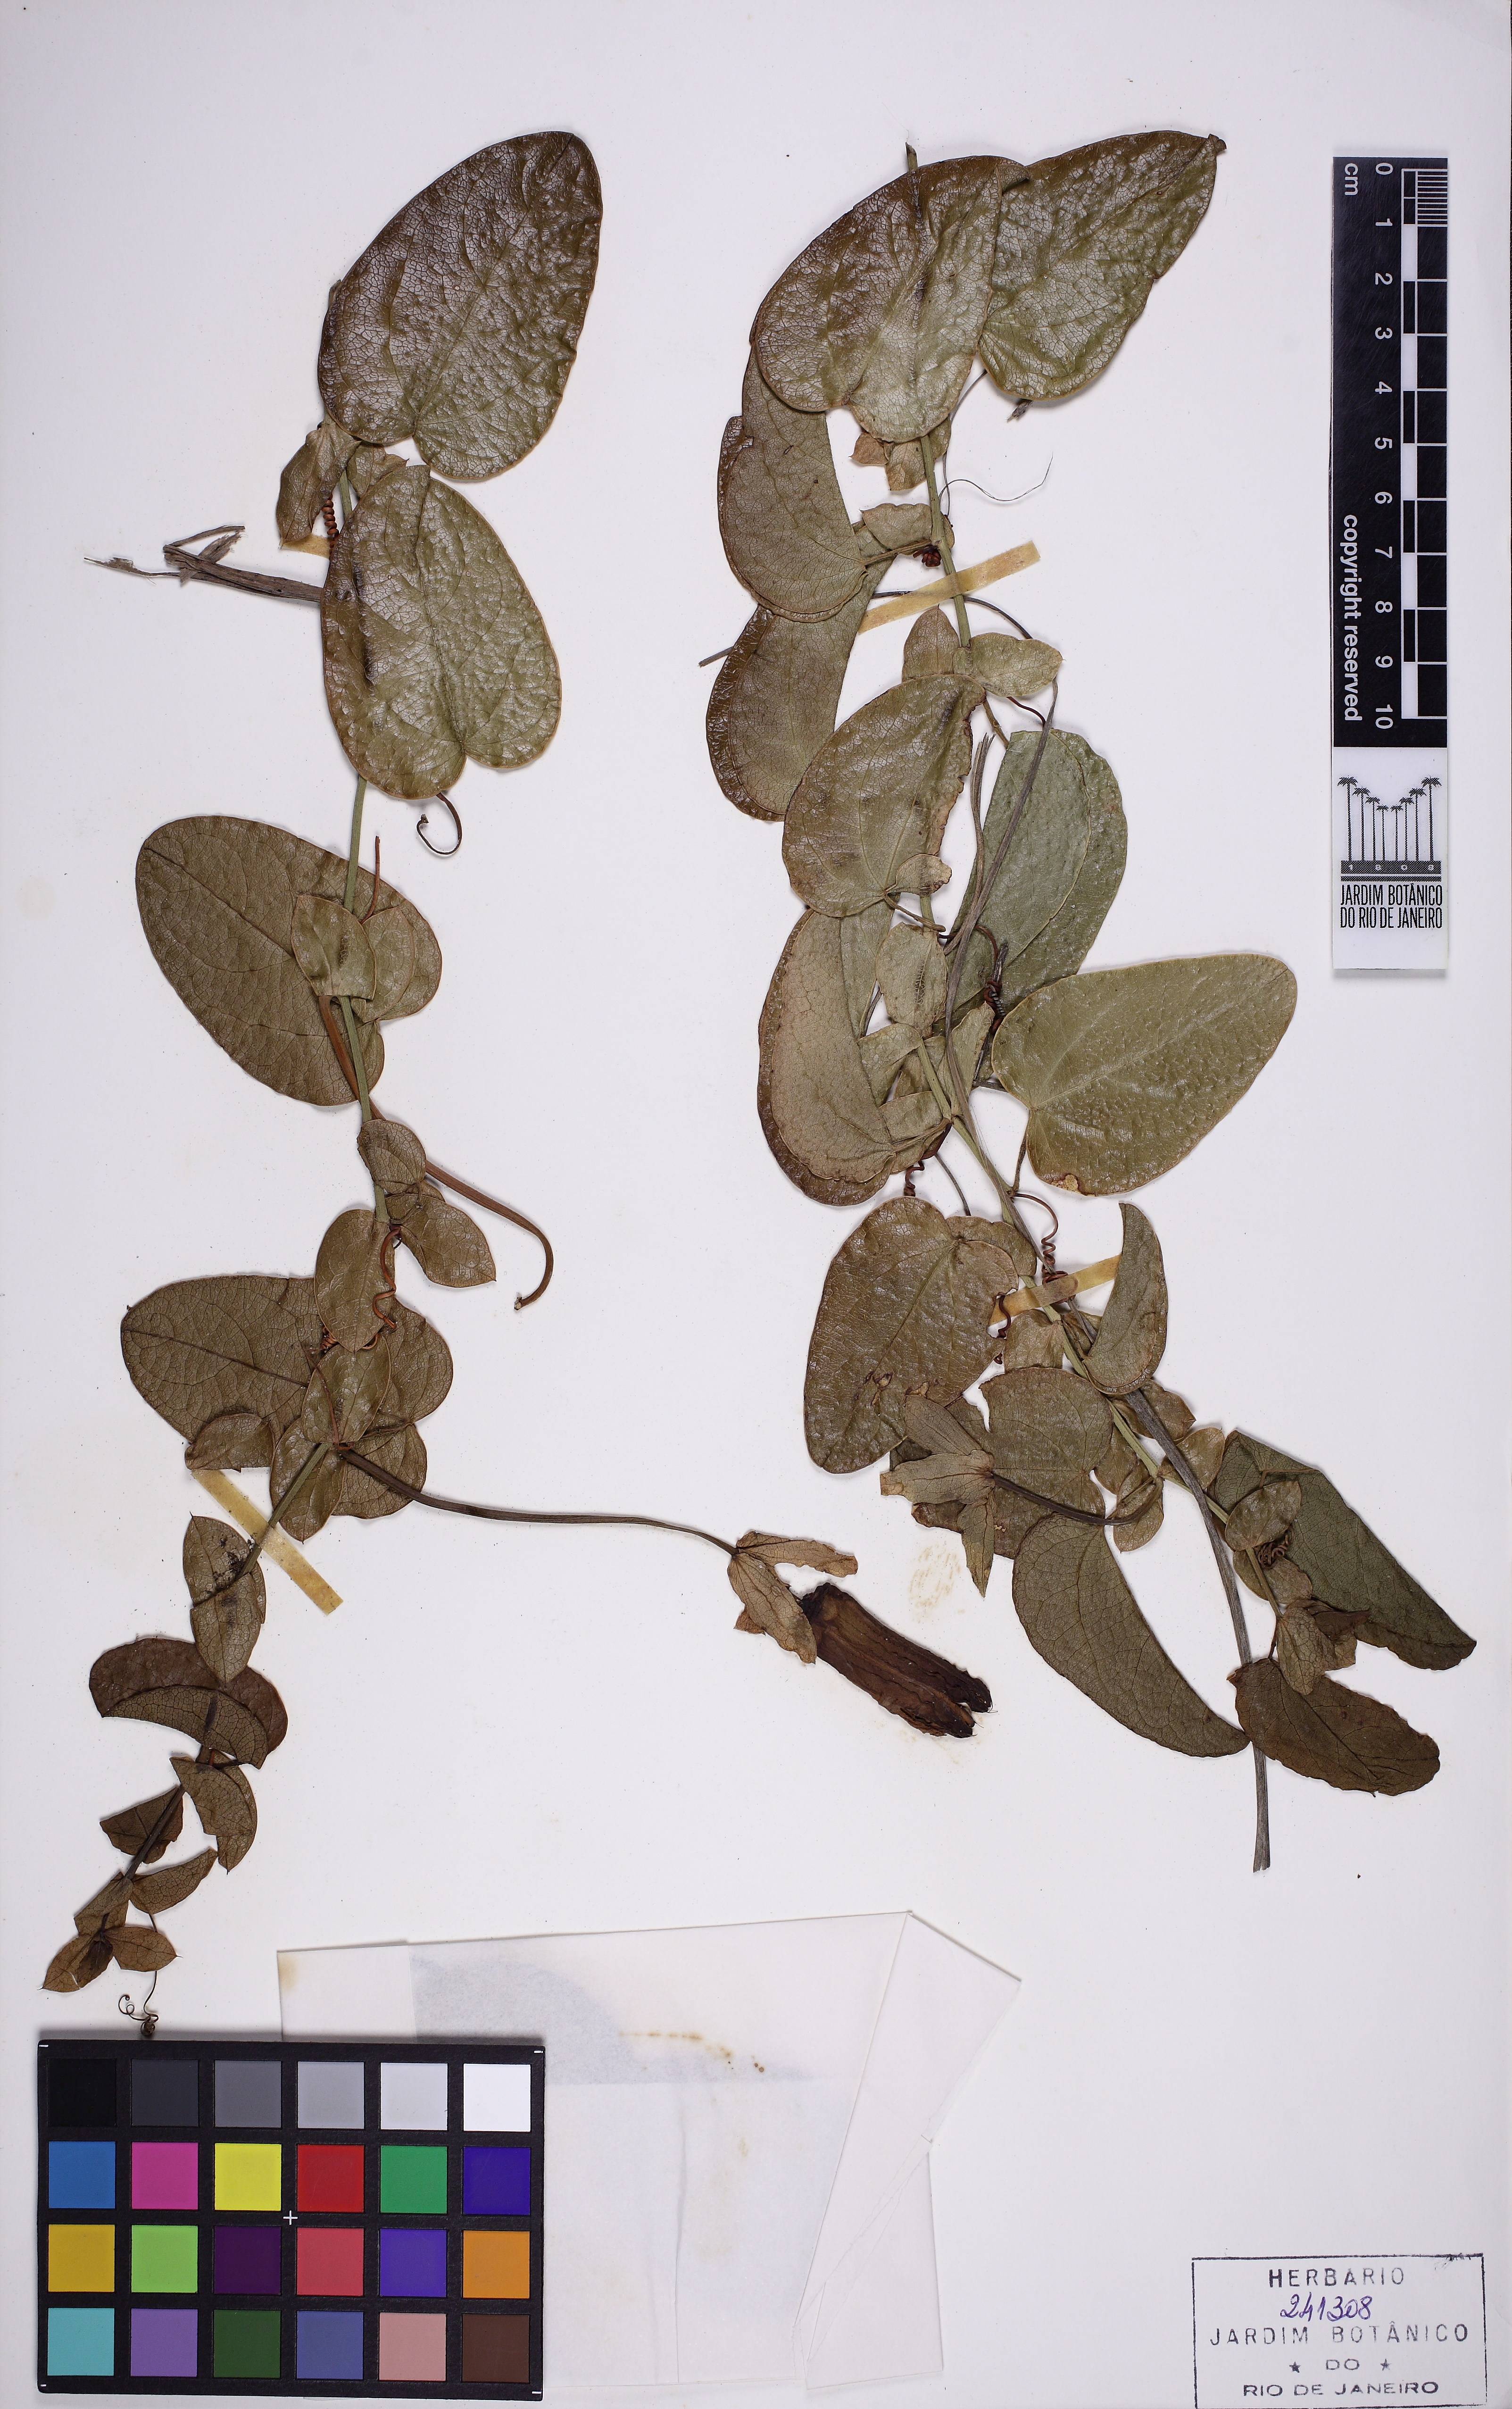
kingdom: Plantae
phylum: Tracheophyta
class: Magnoliopsida
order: Malpighiales
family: Passifloraceae
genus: Passiflora
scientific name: Passiflora mucronata
